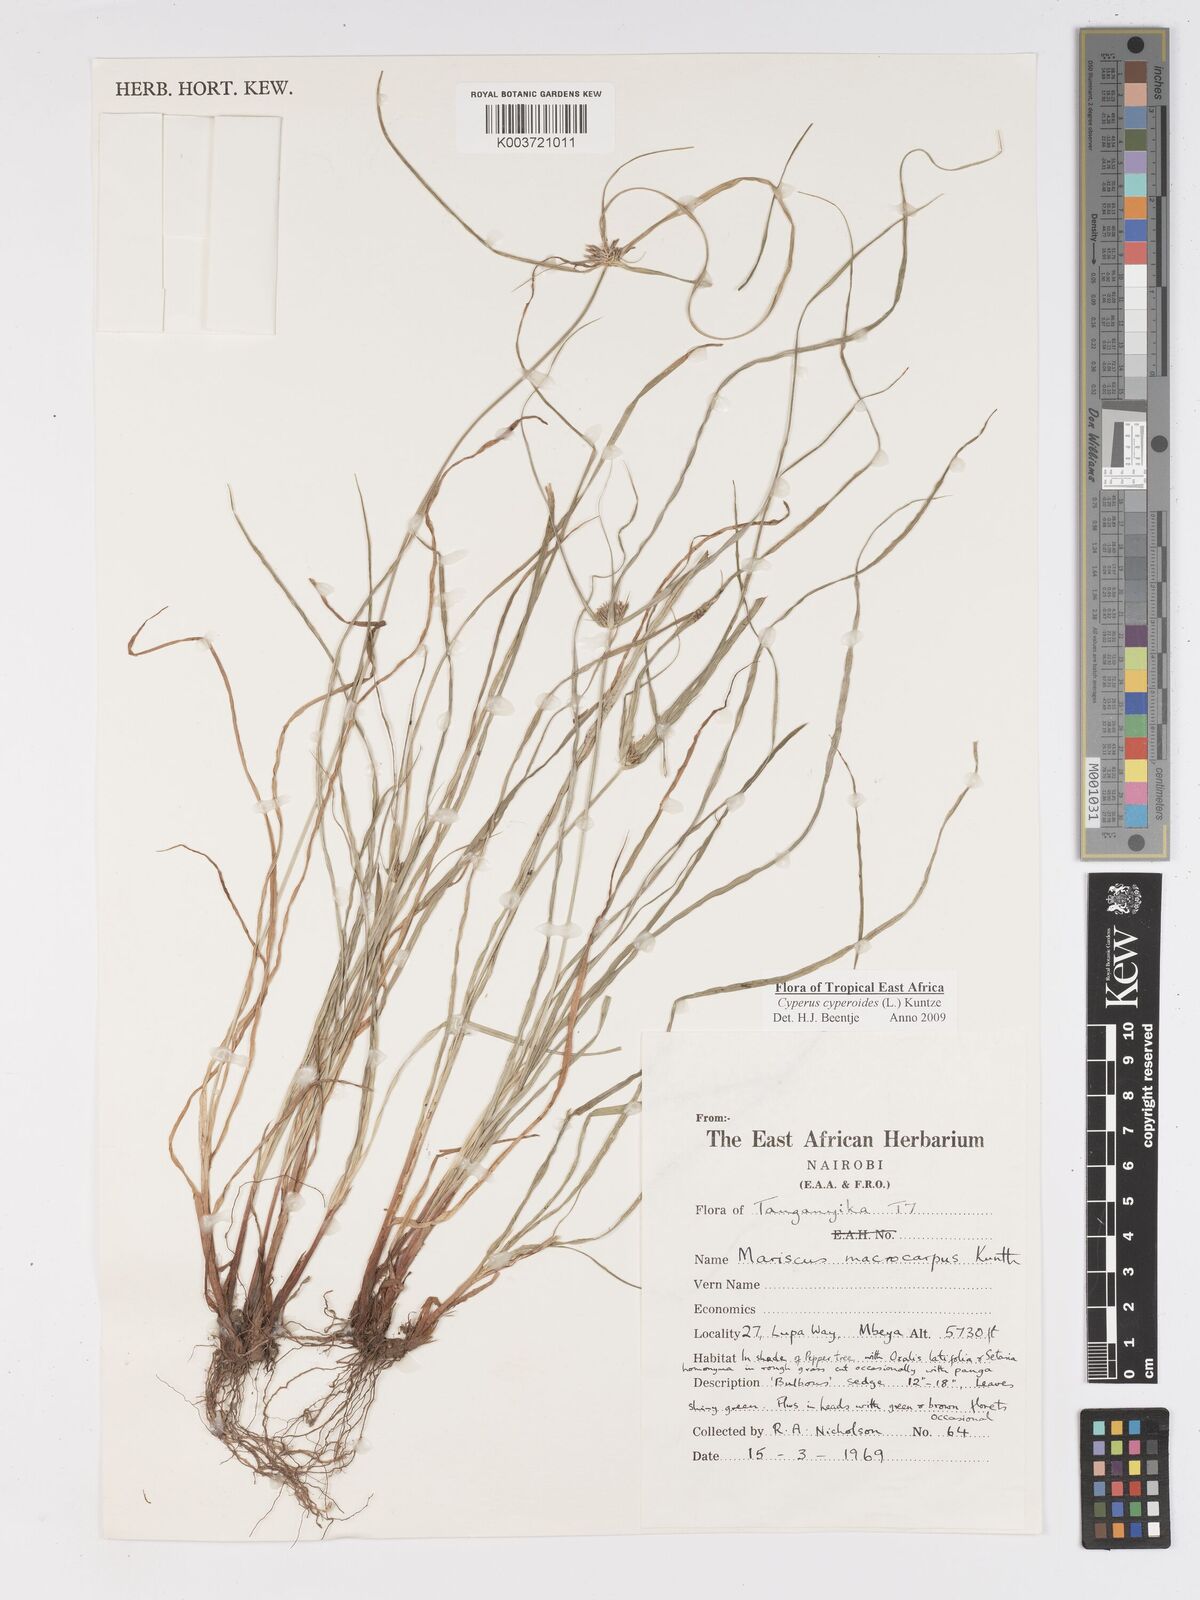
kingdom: Plantae
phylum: Tracheophyta
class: Liliopsida
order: Poales
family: Cyperaceae
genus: Cyperus
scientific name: Cyperus cyperoides
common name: Pacific island flat sedge
